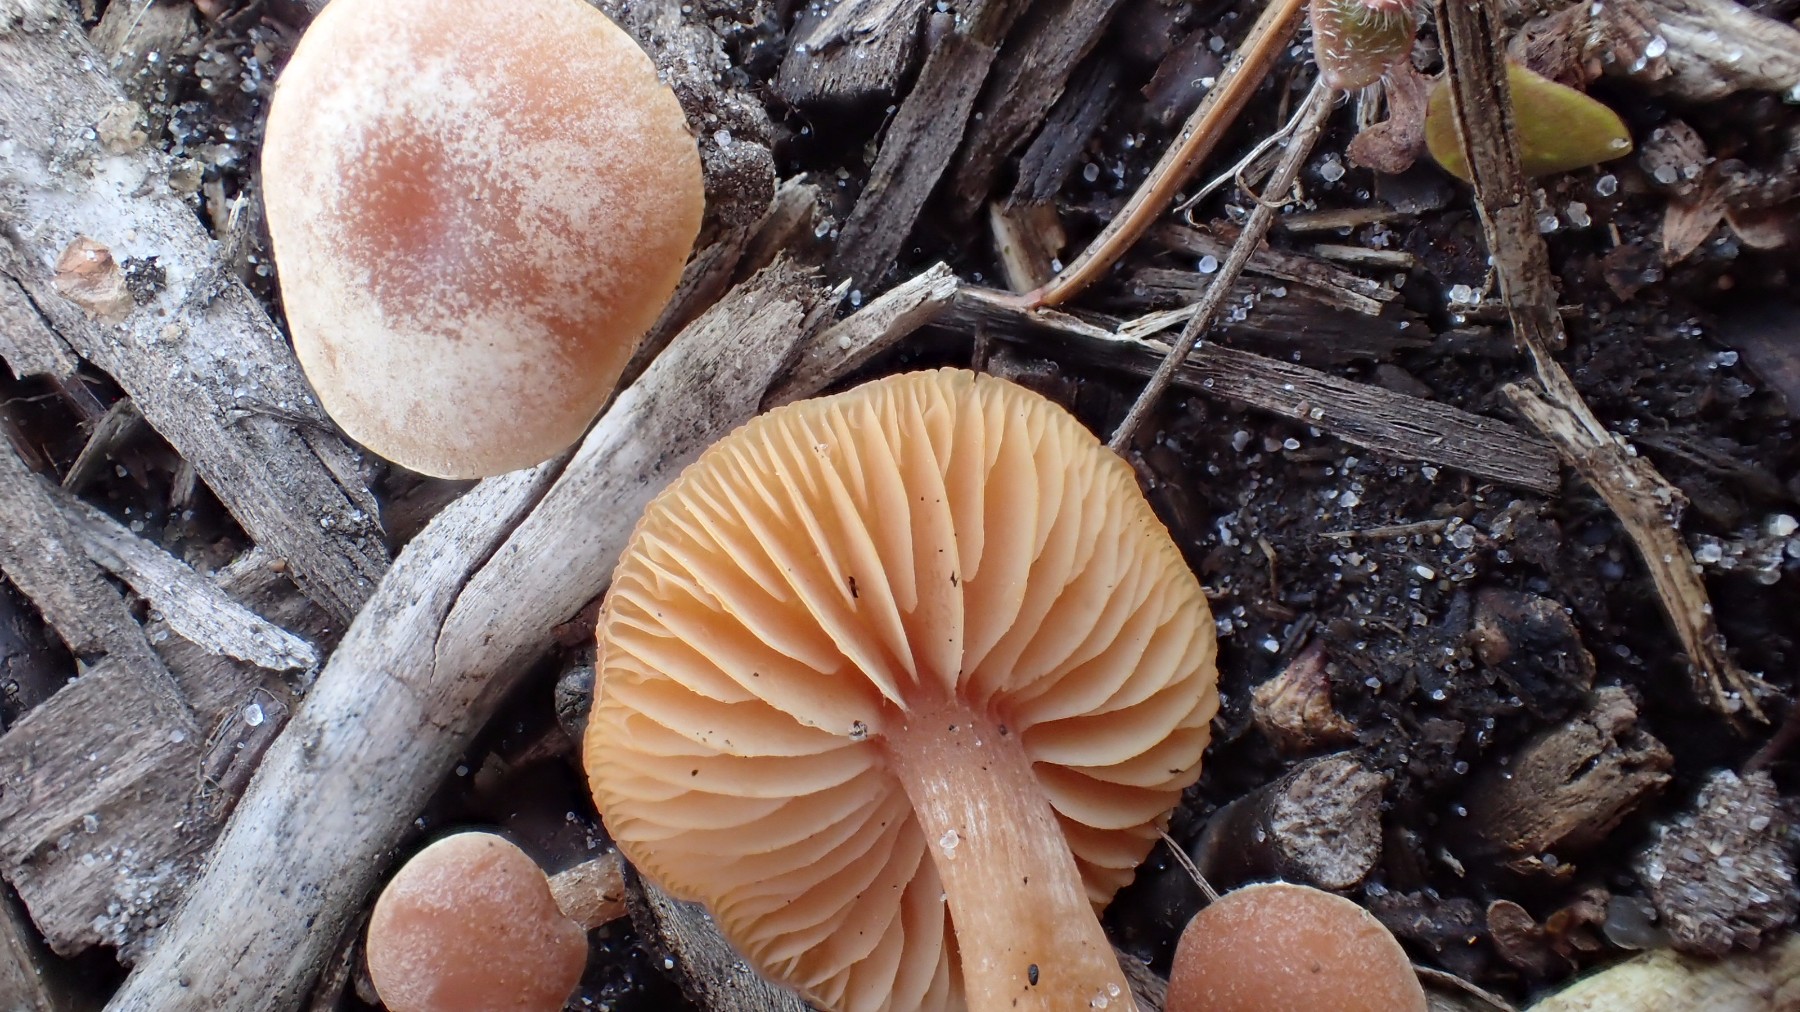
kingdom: Fungi
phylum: Basidiomycota
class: Agaricomycetes
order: Agaricales
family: Tubariaceae
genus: Tubaria
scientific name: Tubaria furfuracea
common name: kliddet fnughat
